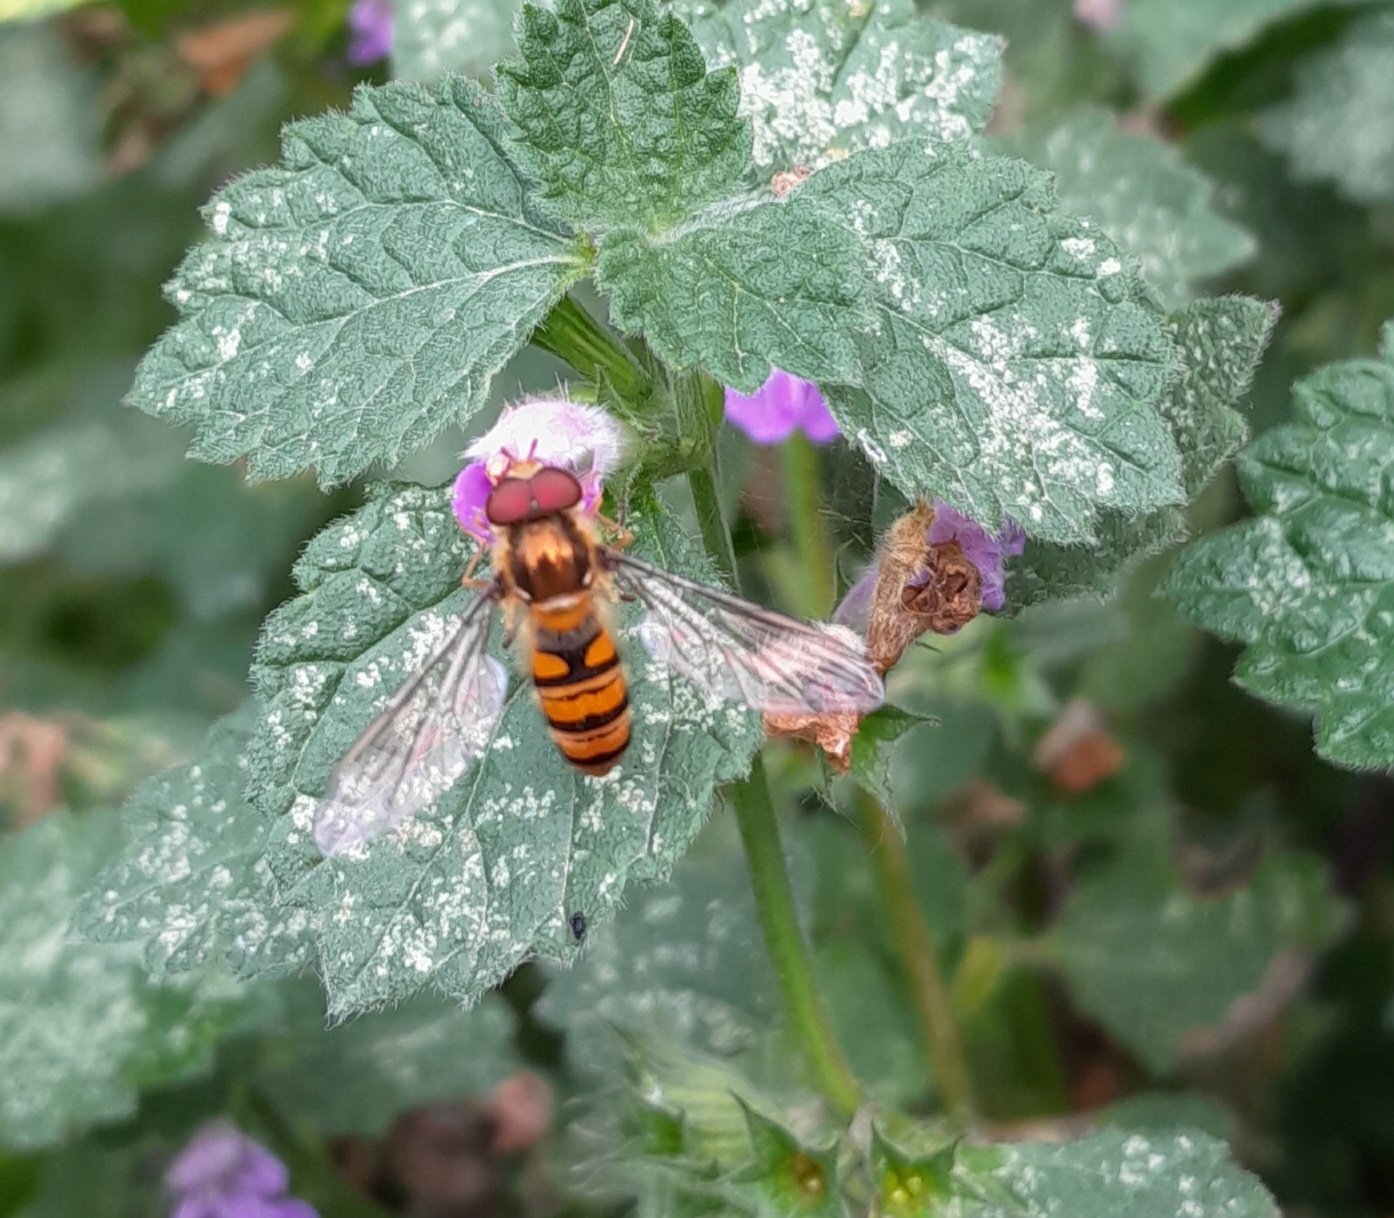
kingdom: Animalia
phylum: Arthropoda
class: Insecta
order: Diptera
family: Syrphidae
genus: Episyrphus
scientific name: Episyrphus balteatus
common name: Dobbeltbåndet svirreflue
